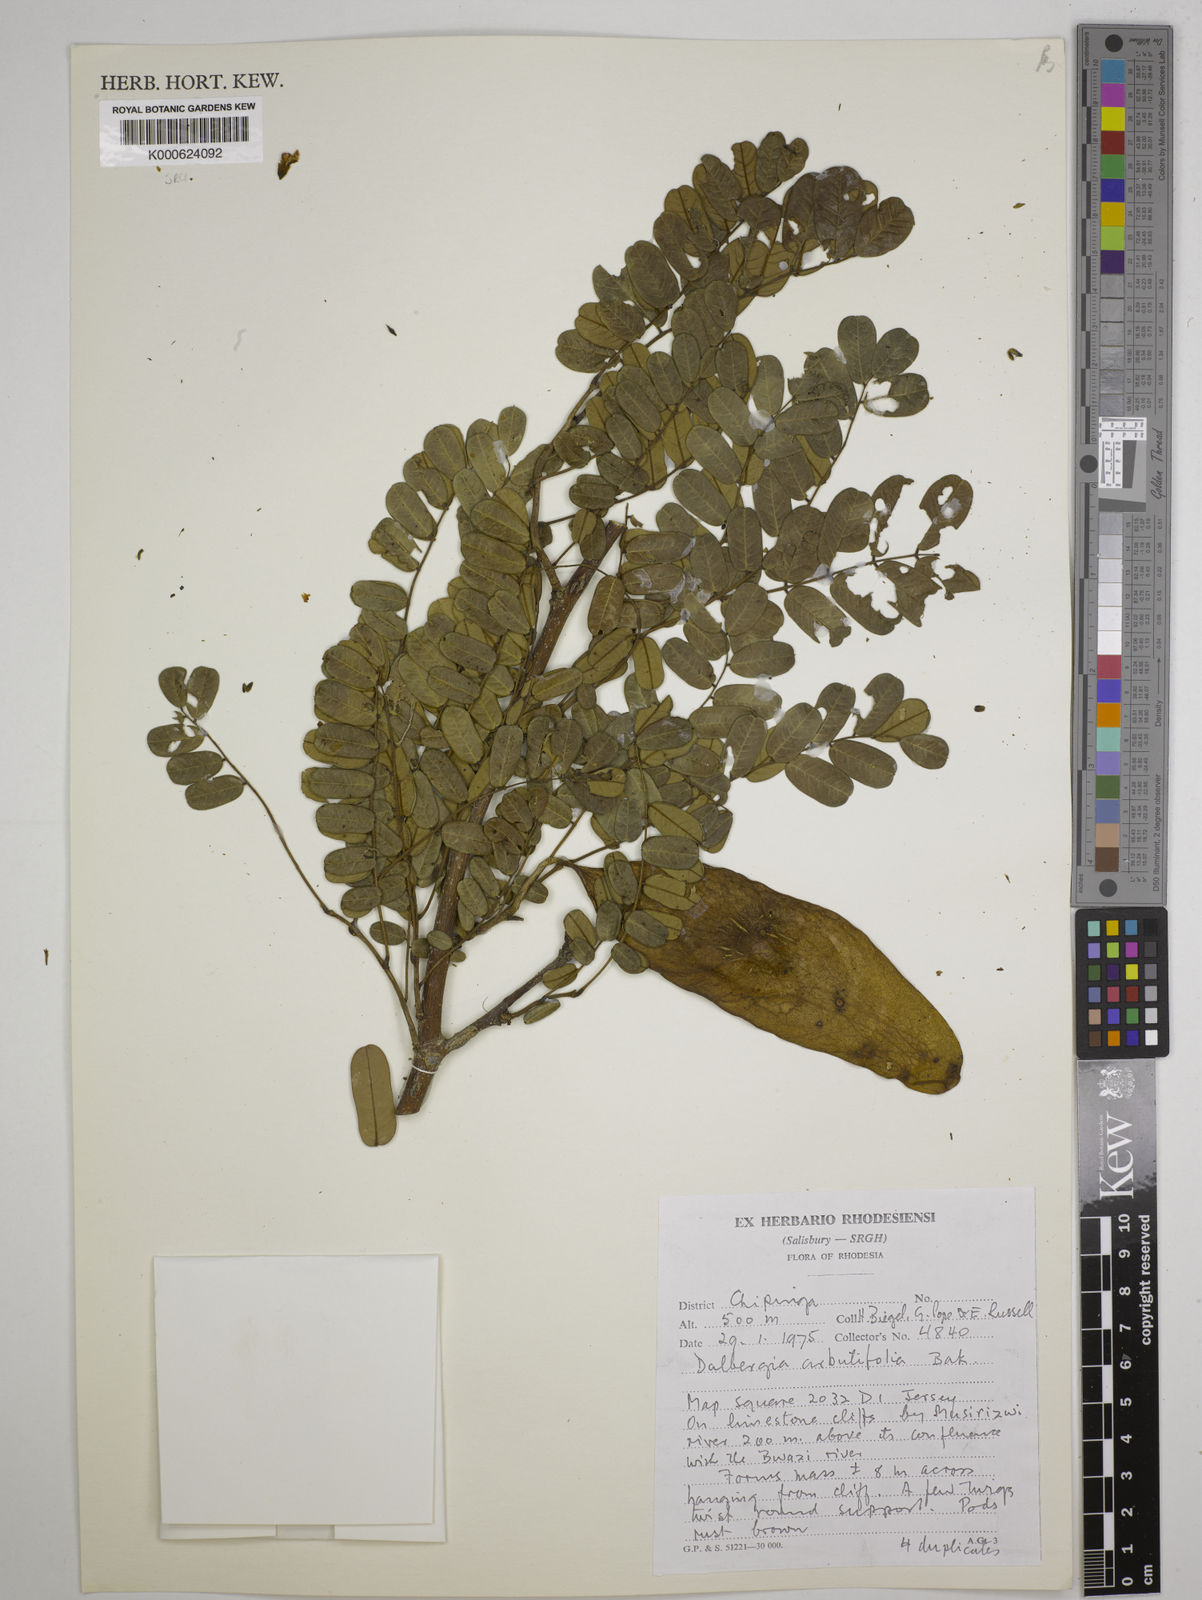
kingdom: Plantae
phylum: Tracheophyta
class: Magnoliopsida
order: Fabales
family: Fabaceae
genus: Dalbergia
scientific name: Dalbergia arbutifolia
